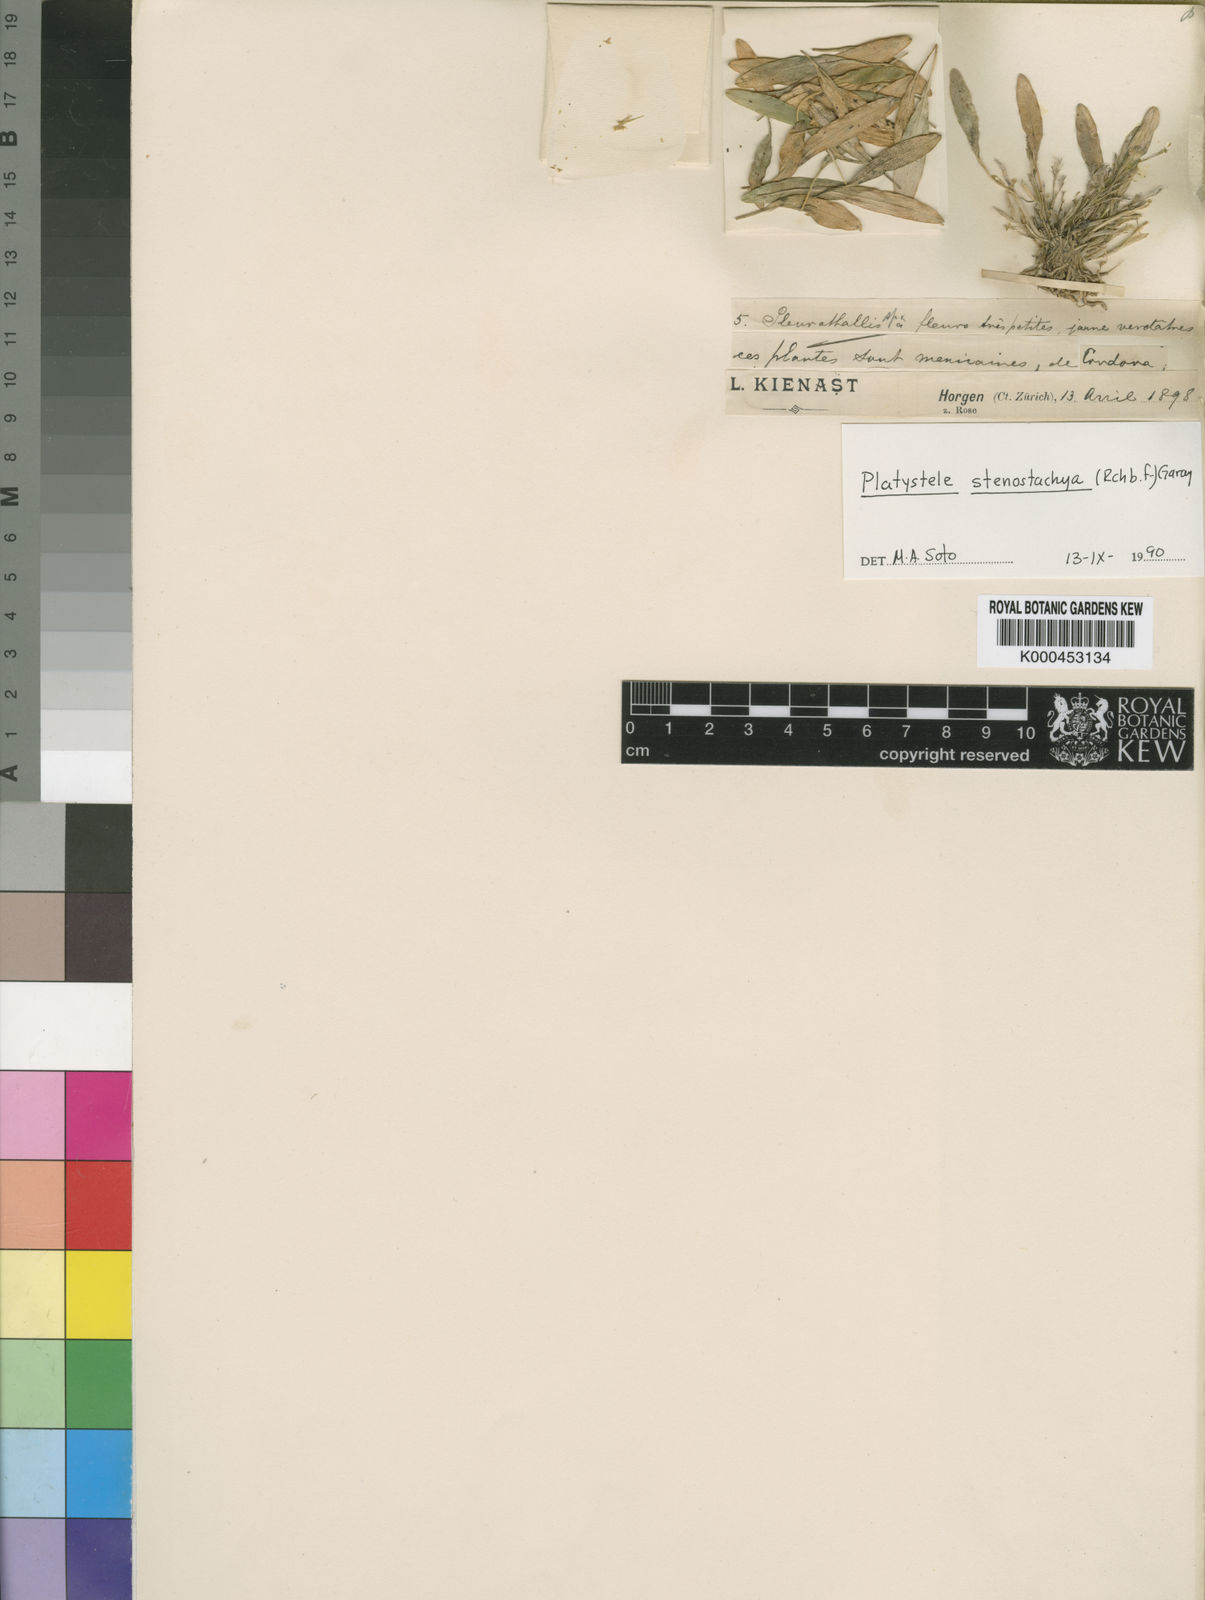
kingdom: Plantae
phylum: Tracheophyta
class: Liliopsida
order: Asparagales
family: Orchidaceae
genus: Platystele
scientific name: Platystele stenostachya
